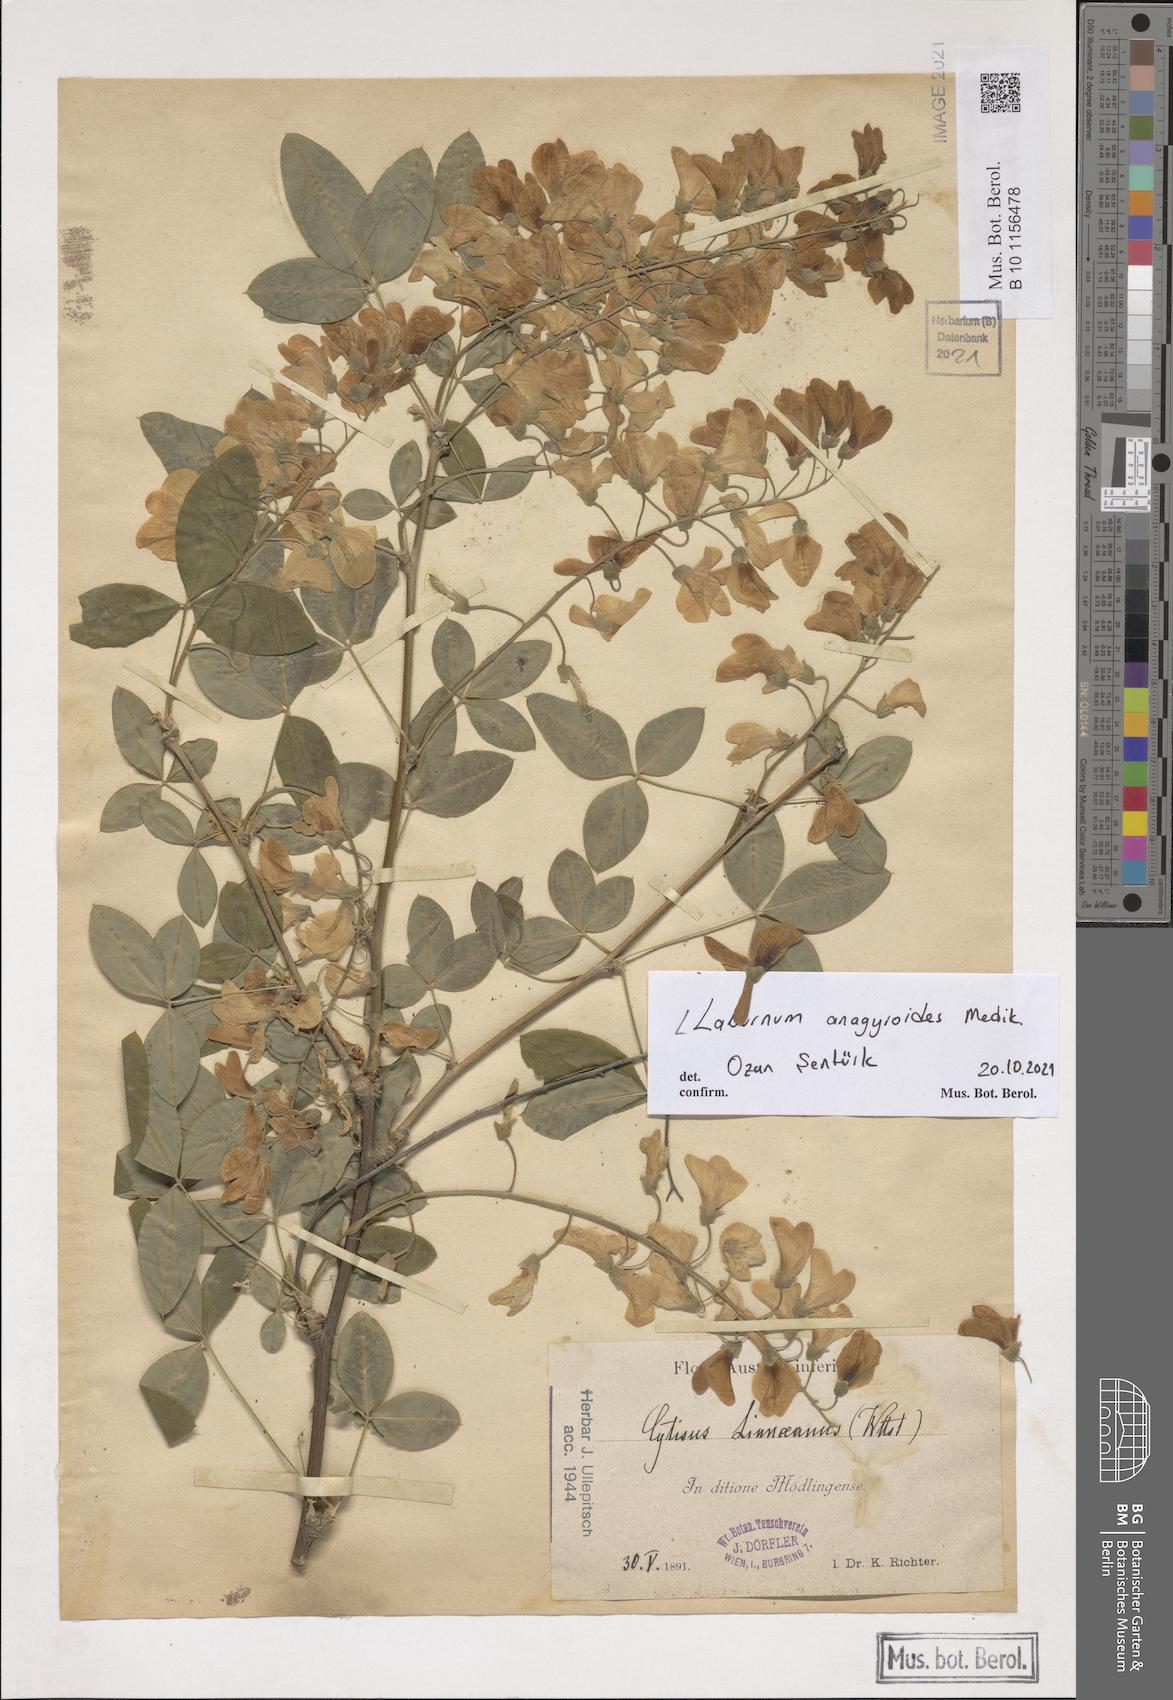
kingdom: Plantae
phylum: Tracheophyta
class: Magnoliopsida
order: Fabales
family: Fabaceae
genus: Laburnum
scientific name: Laburnum anagyroides
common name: Laburnum
